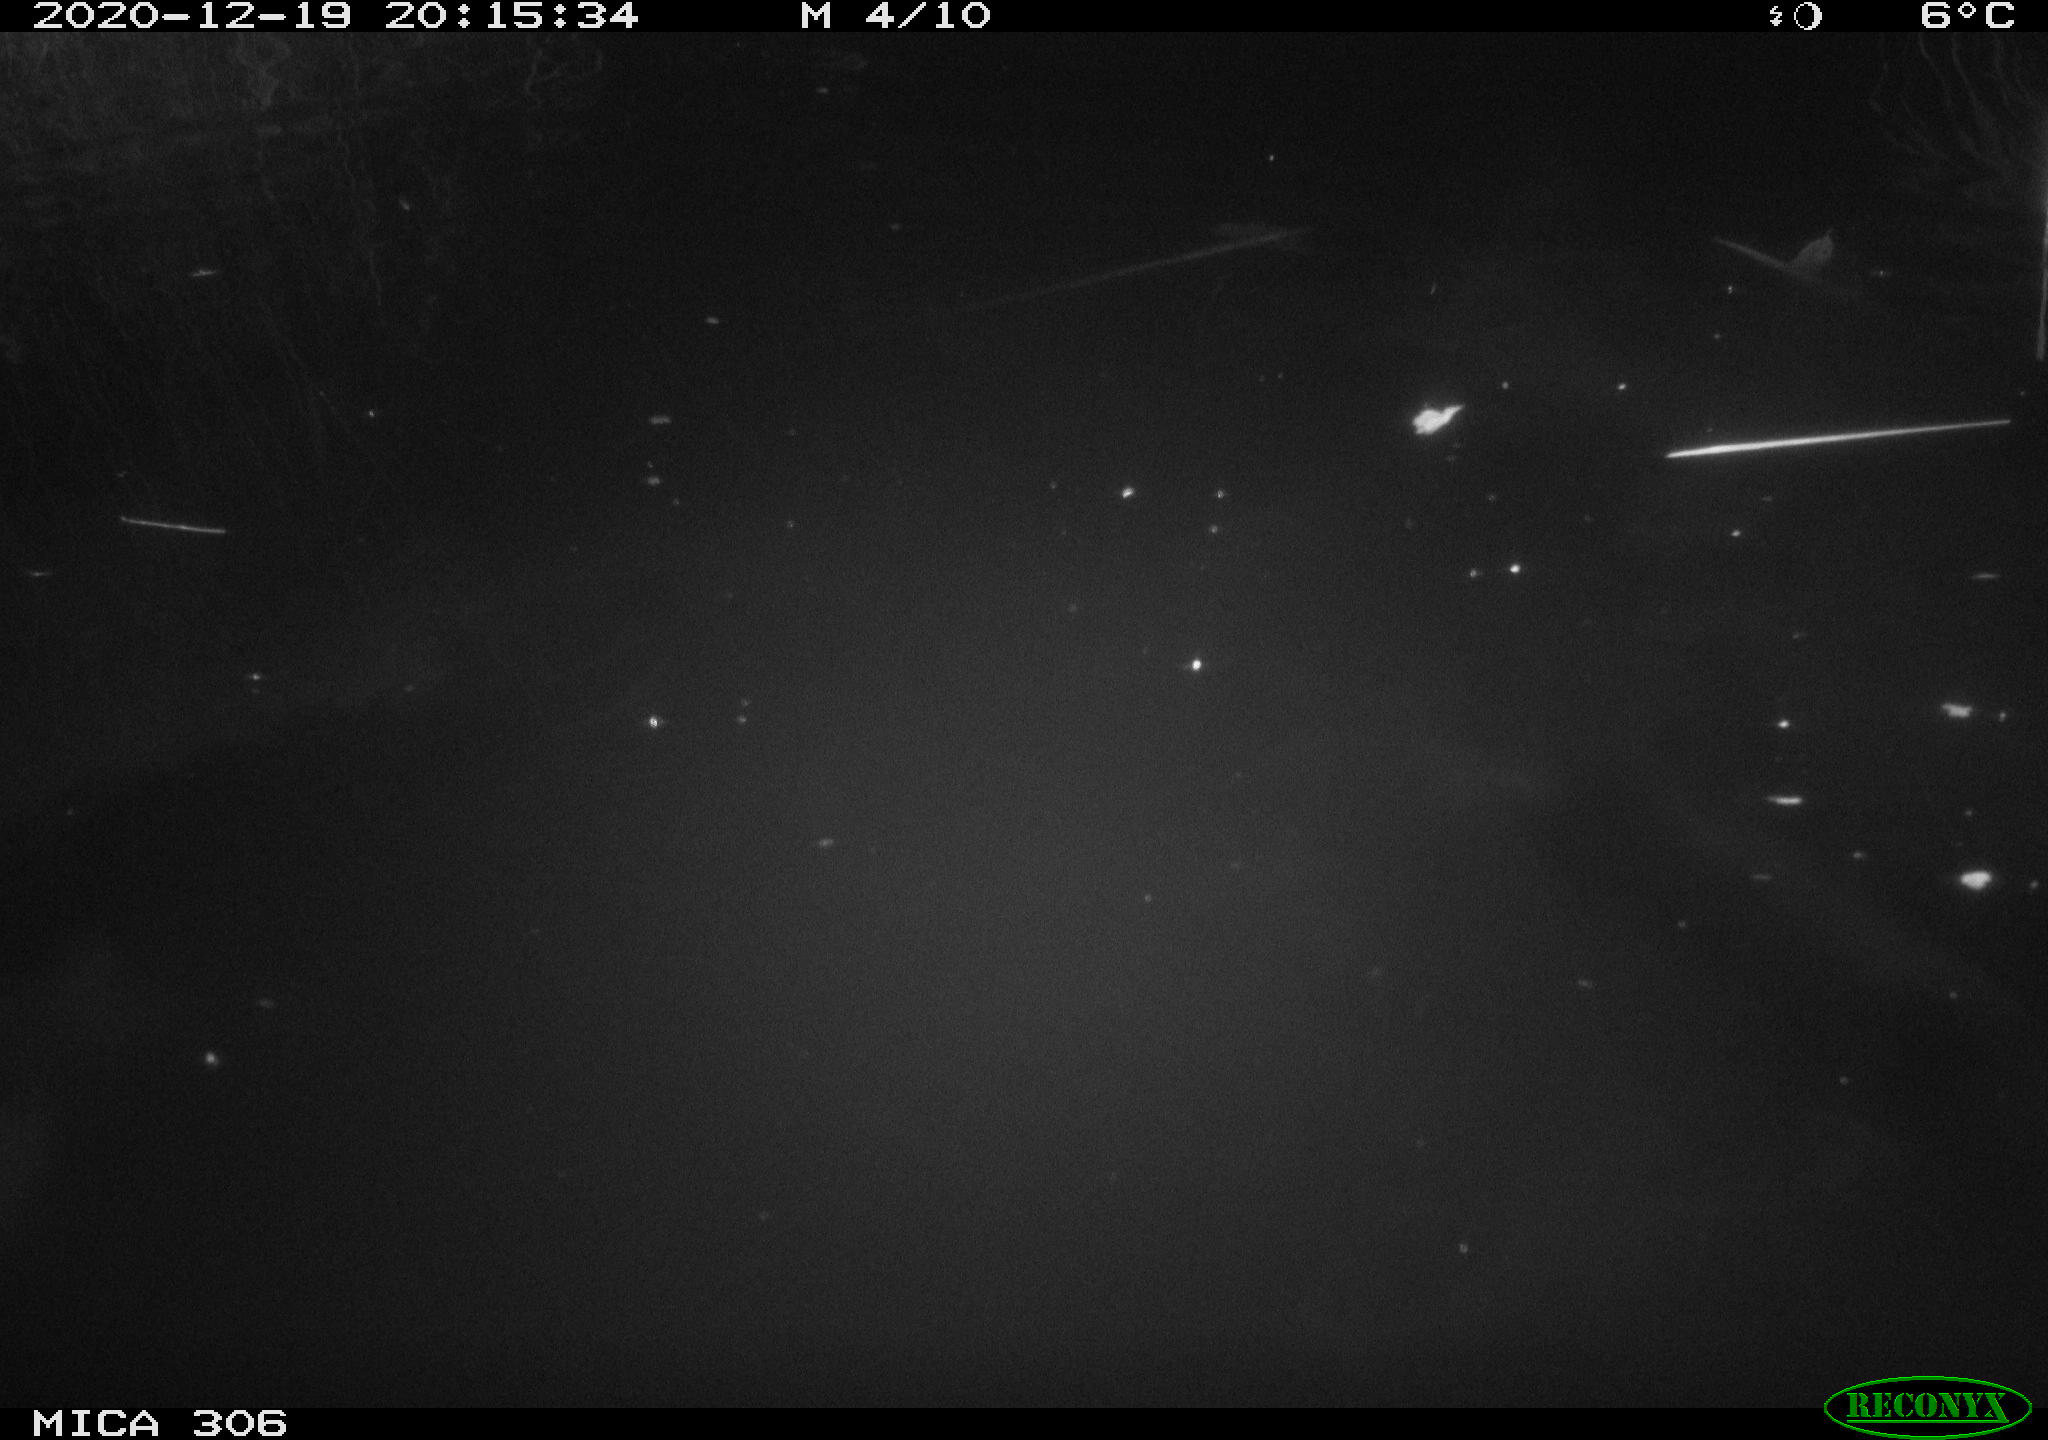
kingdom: Animalia
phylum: Chordata
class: Aves
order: Anseriformes
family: Anatidae
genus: Anas
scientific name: Anas
